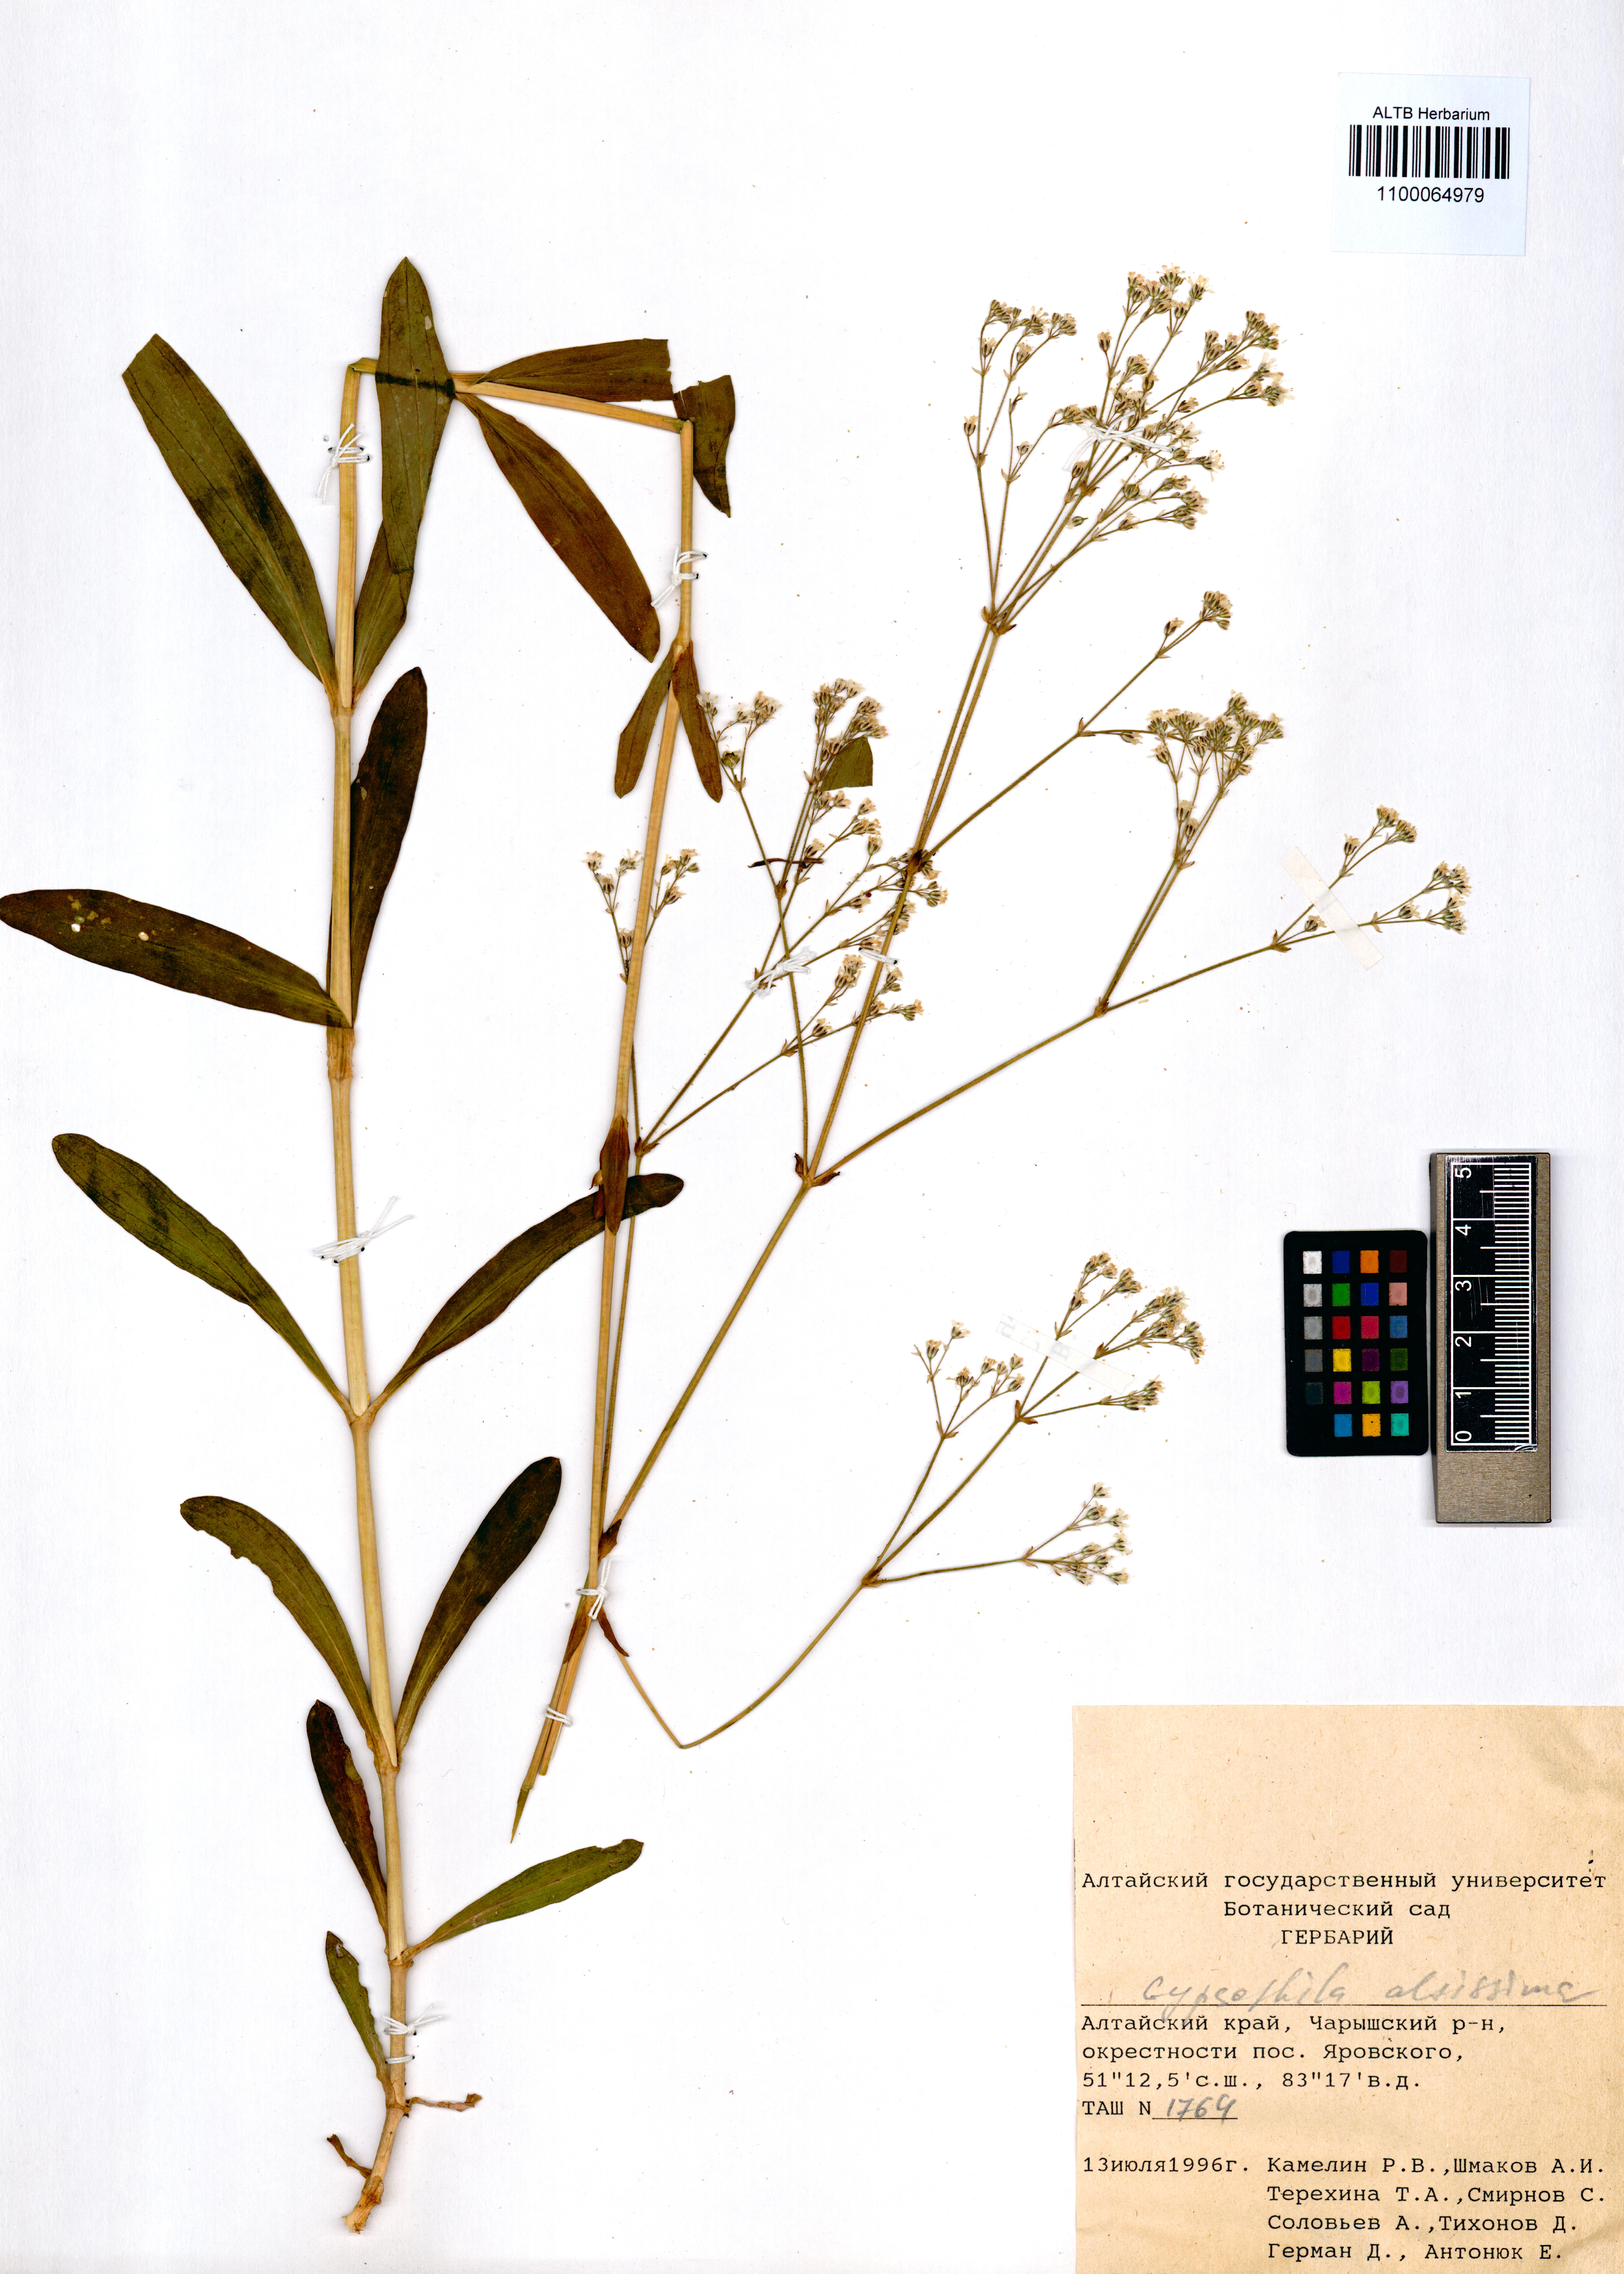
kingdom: Plantae
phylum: Tracheophyta
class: Magnoliopsida
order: Caryophyllales
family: Caryophyllaceae
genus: Gypsophila
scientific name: Gypsophila altissima
